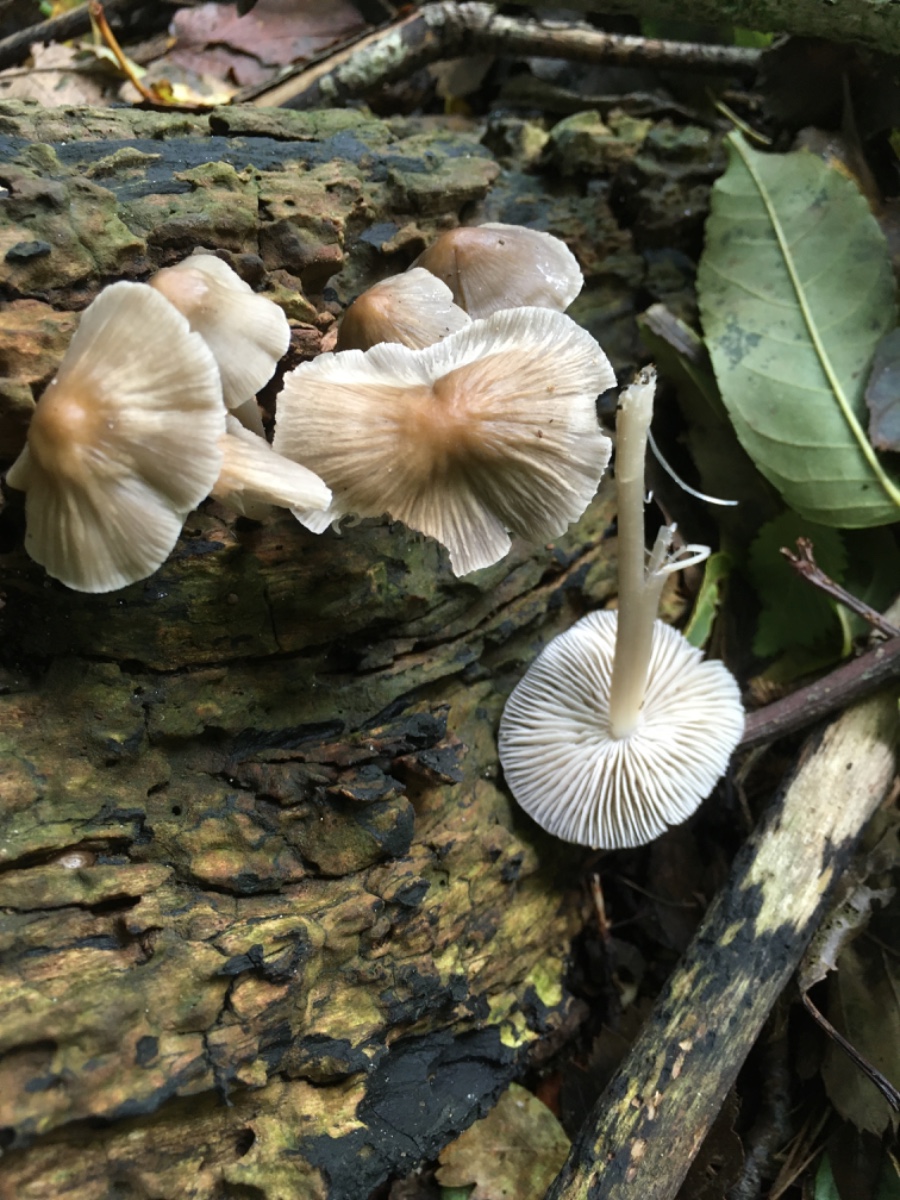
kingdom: Fungi
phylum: Basidiomycota
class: Agaricomycetes
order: Agaricales
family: Mycenaceae
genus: Mycena
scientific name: Mycena galericulata
